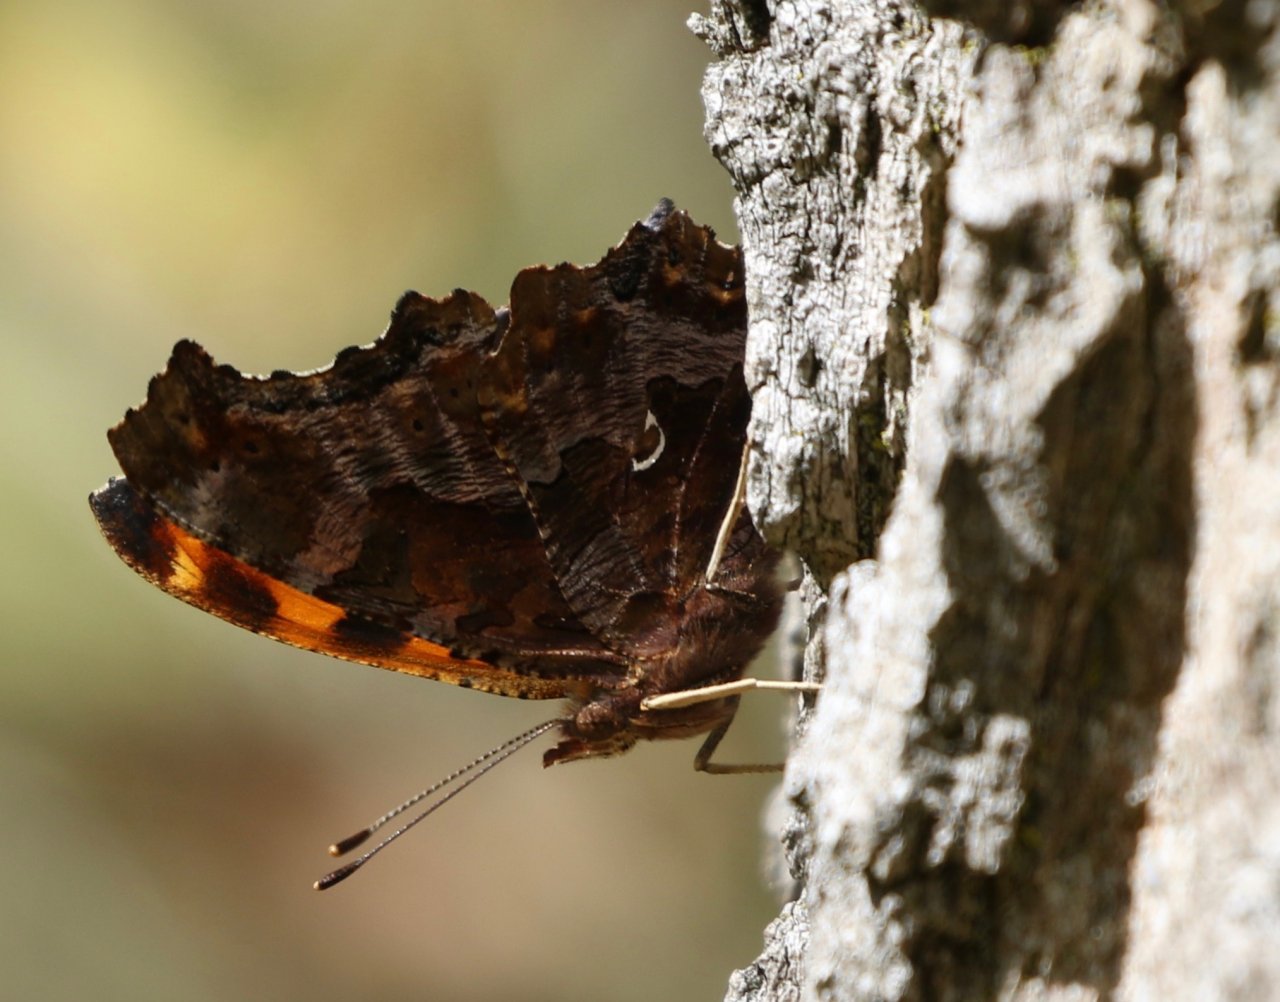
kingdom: Animalia
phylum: Arthropoda
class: Insecta
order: Lepidoptera
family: Nymphalidae
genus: Polygonia
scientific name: Polygonia comma
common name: Eastern Comma
